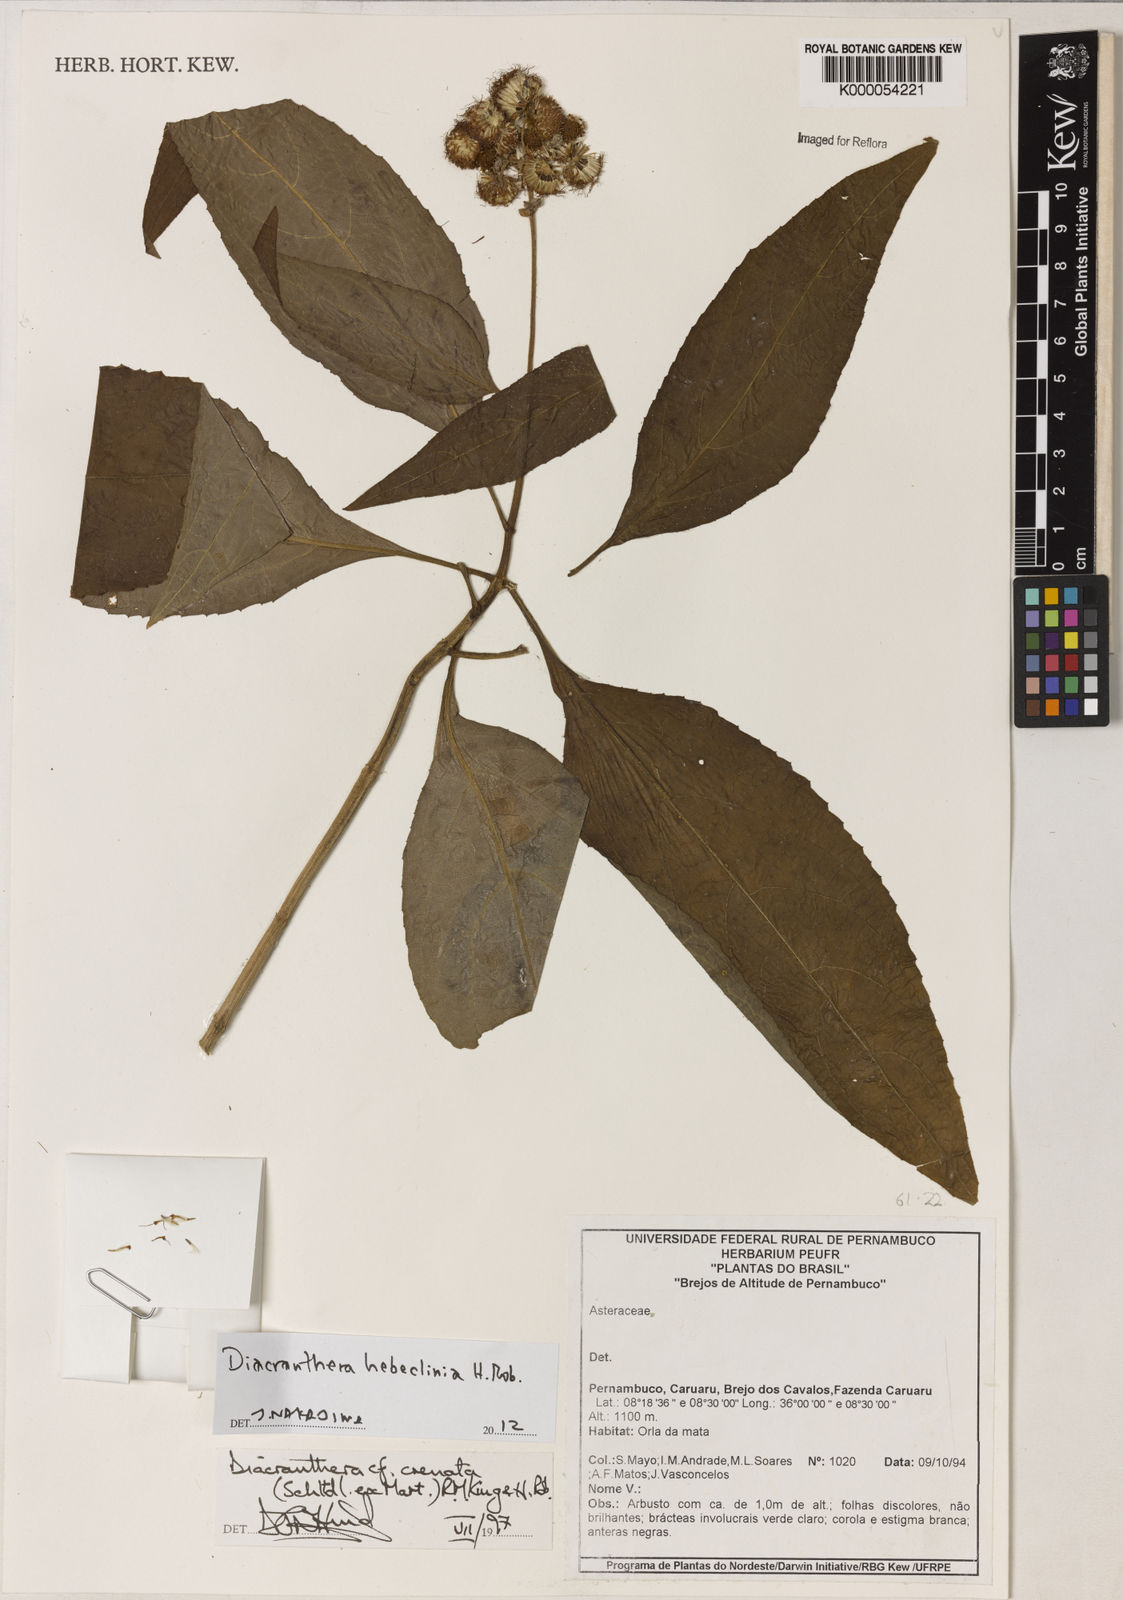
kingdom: Plantae
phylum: Tracheophyta
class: Magnoliopsida
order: Asterales
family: Asteraceae
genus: Diacranthera
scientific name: Diacranthera hebeclinia
